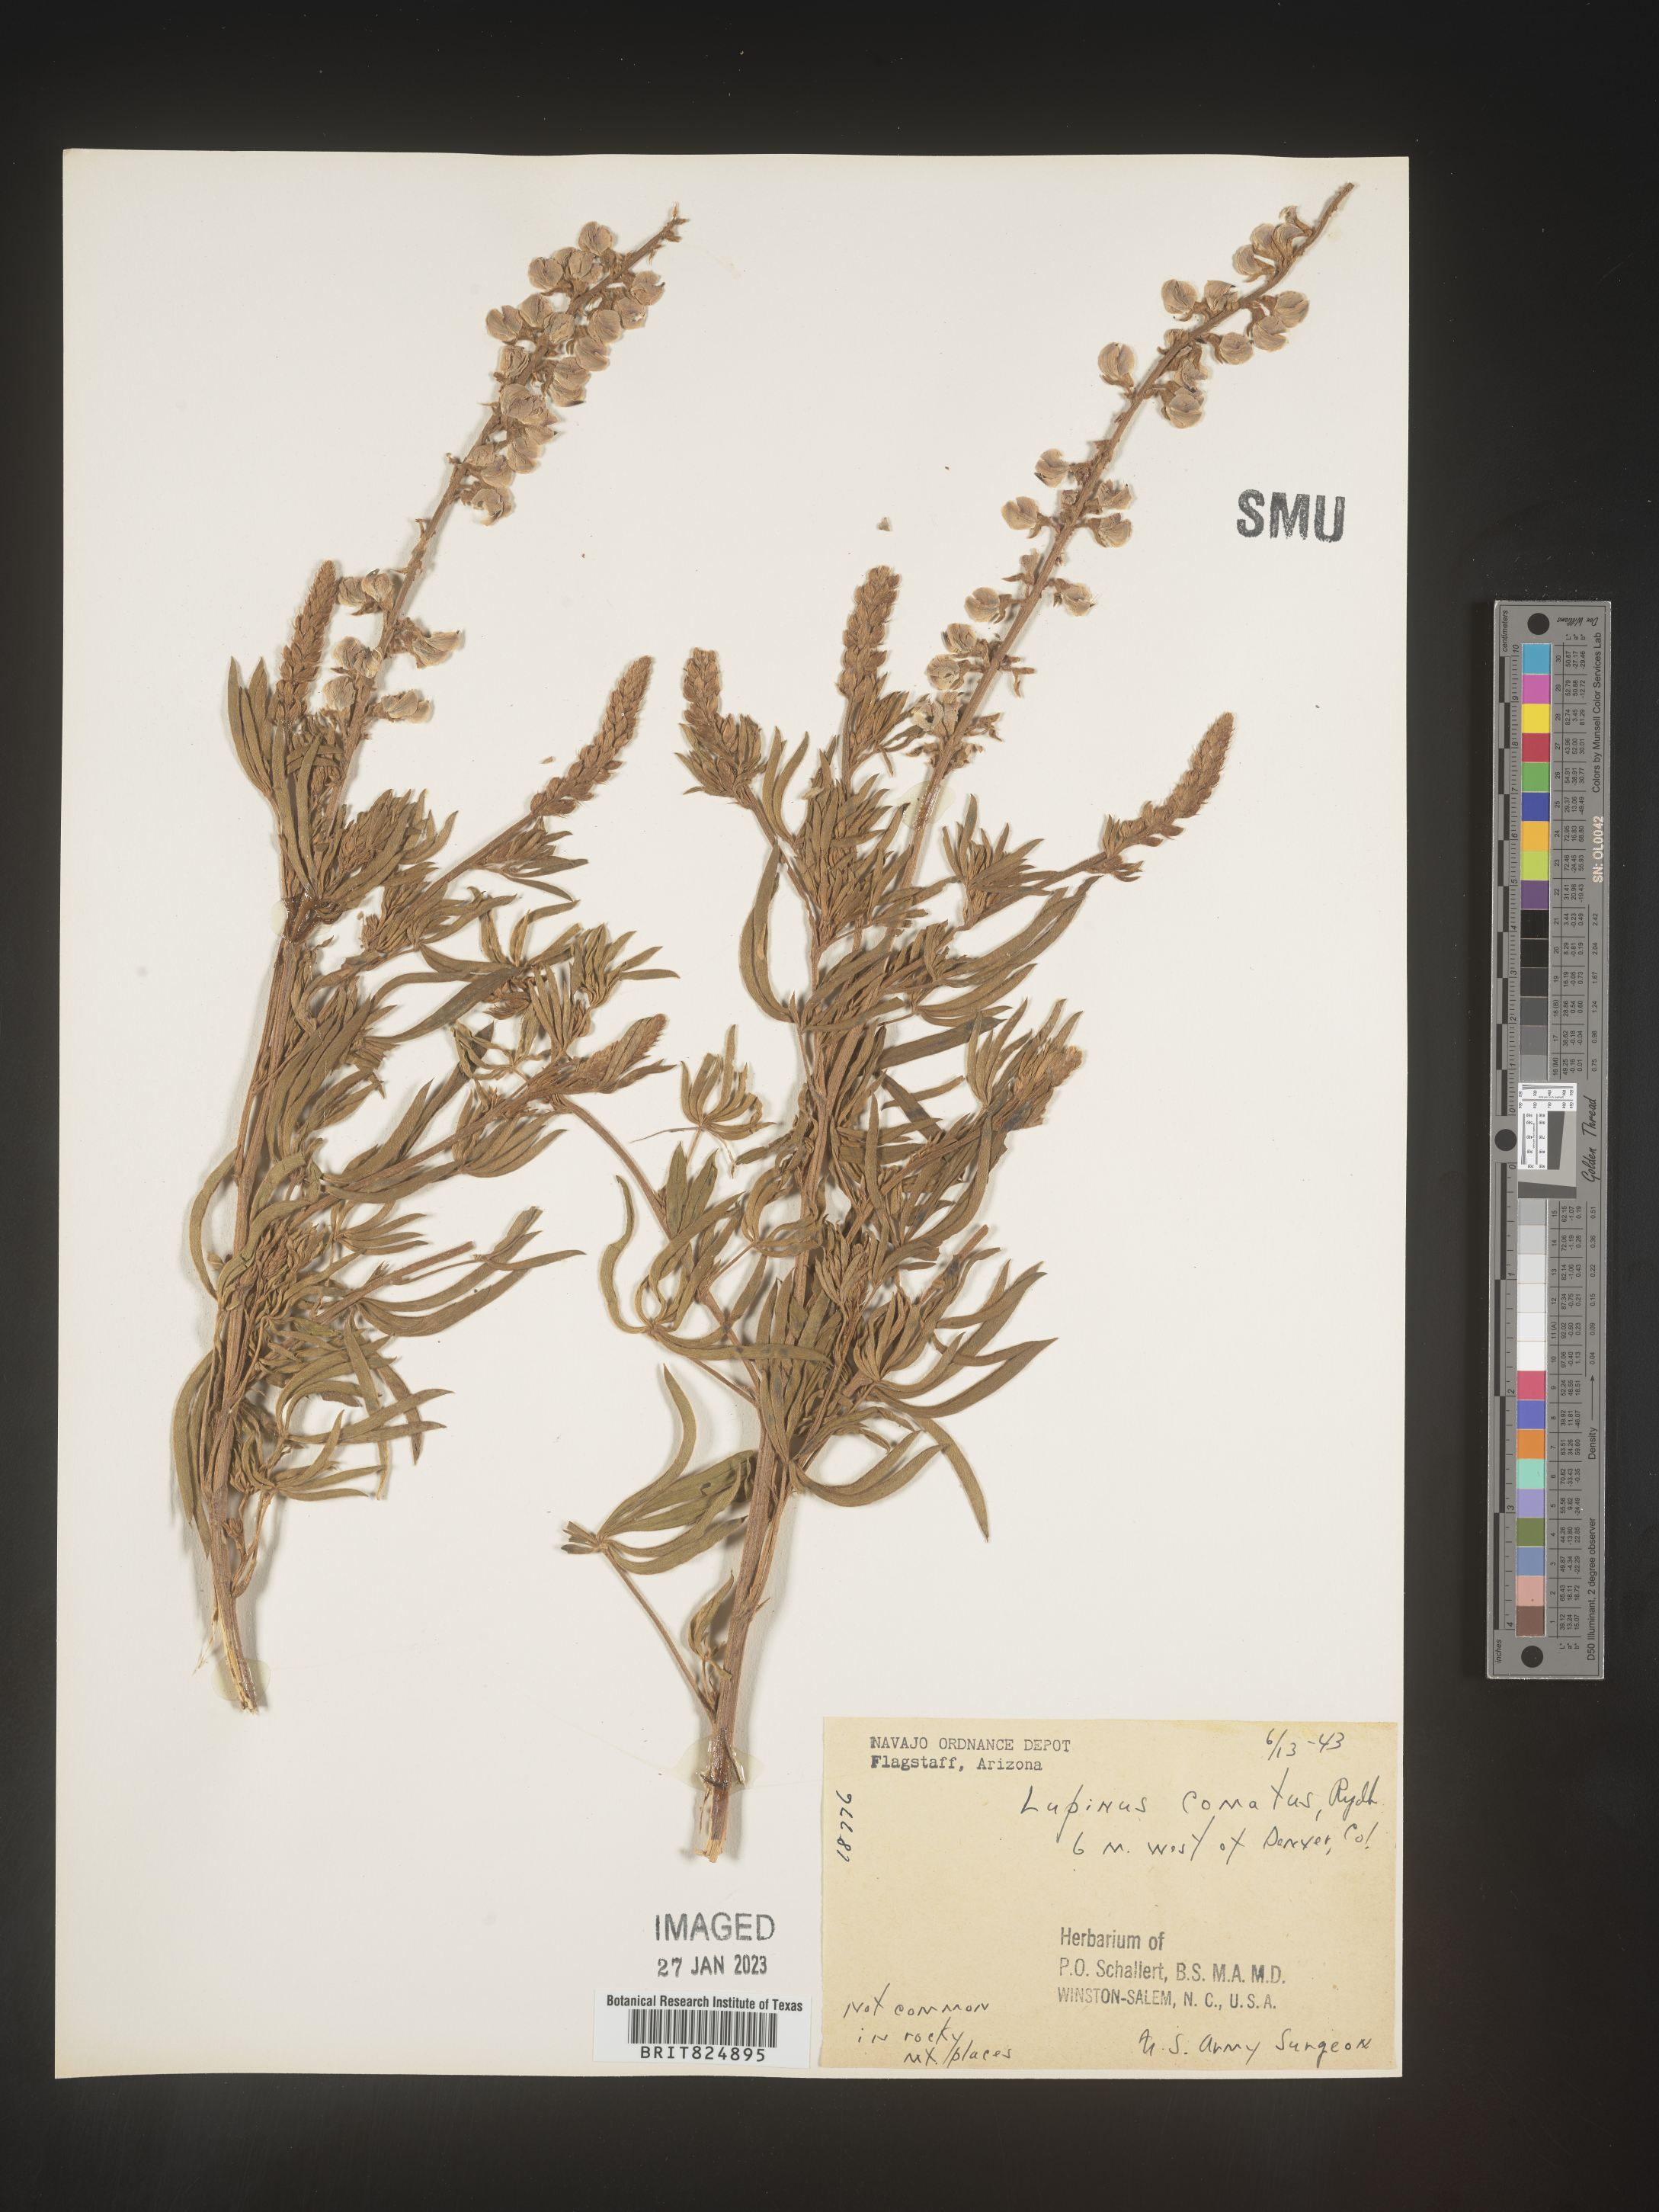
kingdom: Plantae
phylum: Tracheophyta
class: Magnoliopsida
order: Fabales
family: Fabaceae
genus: Lupinus
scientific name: Lupinus
